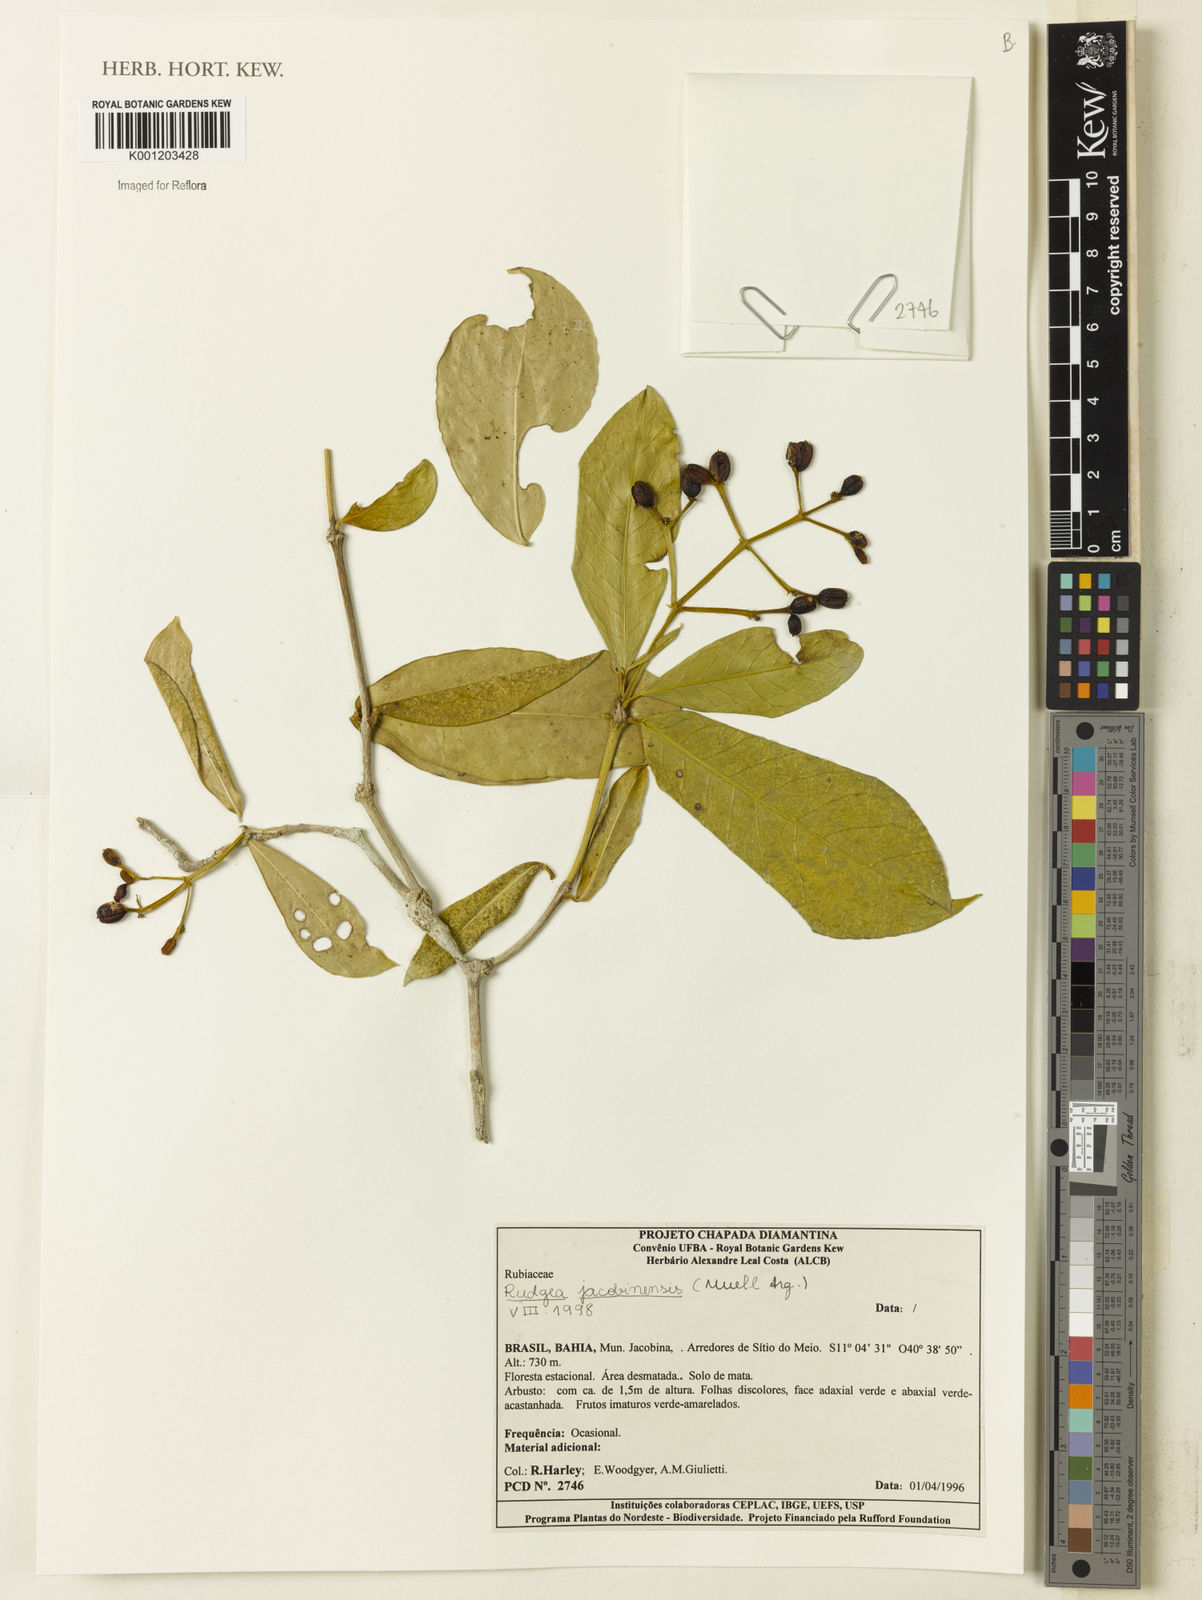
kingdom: Plantae
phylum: Tracheophyta
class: Magnoliopsida
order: Gentianales
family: Rubiaceae
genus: Rudgea
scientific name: Rudgea
